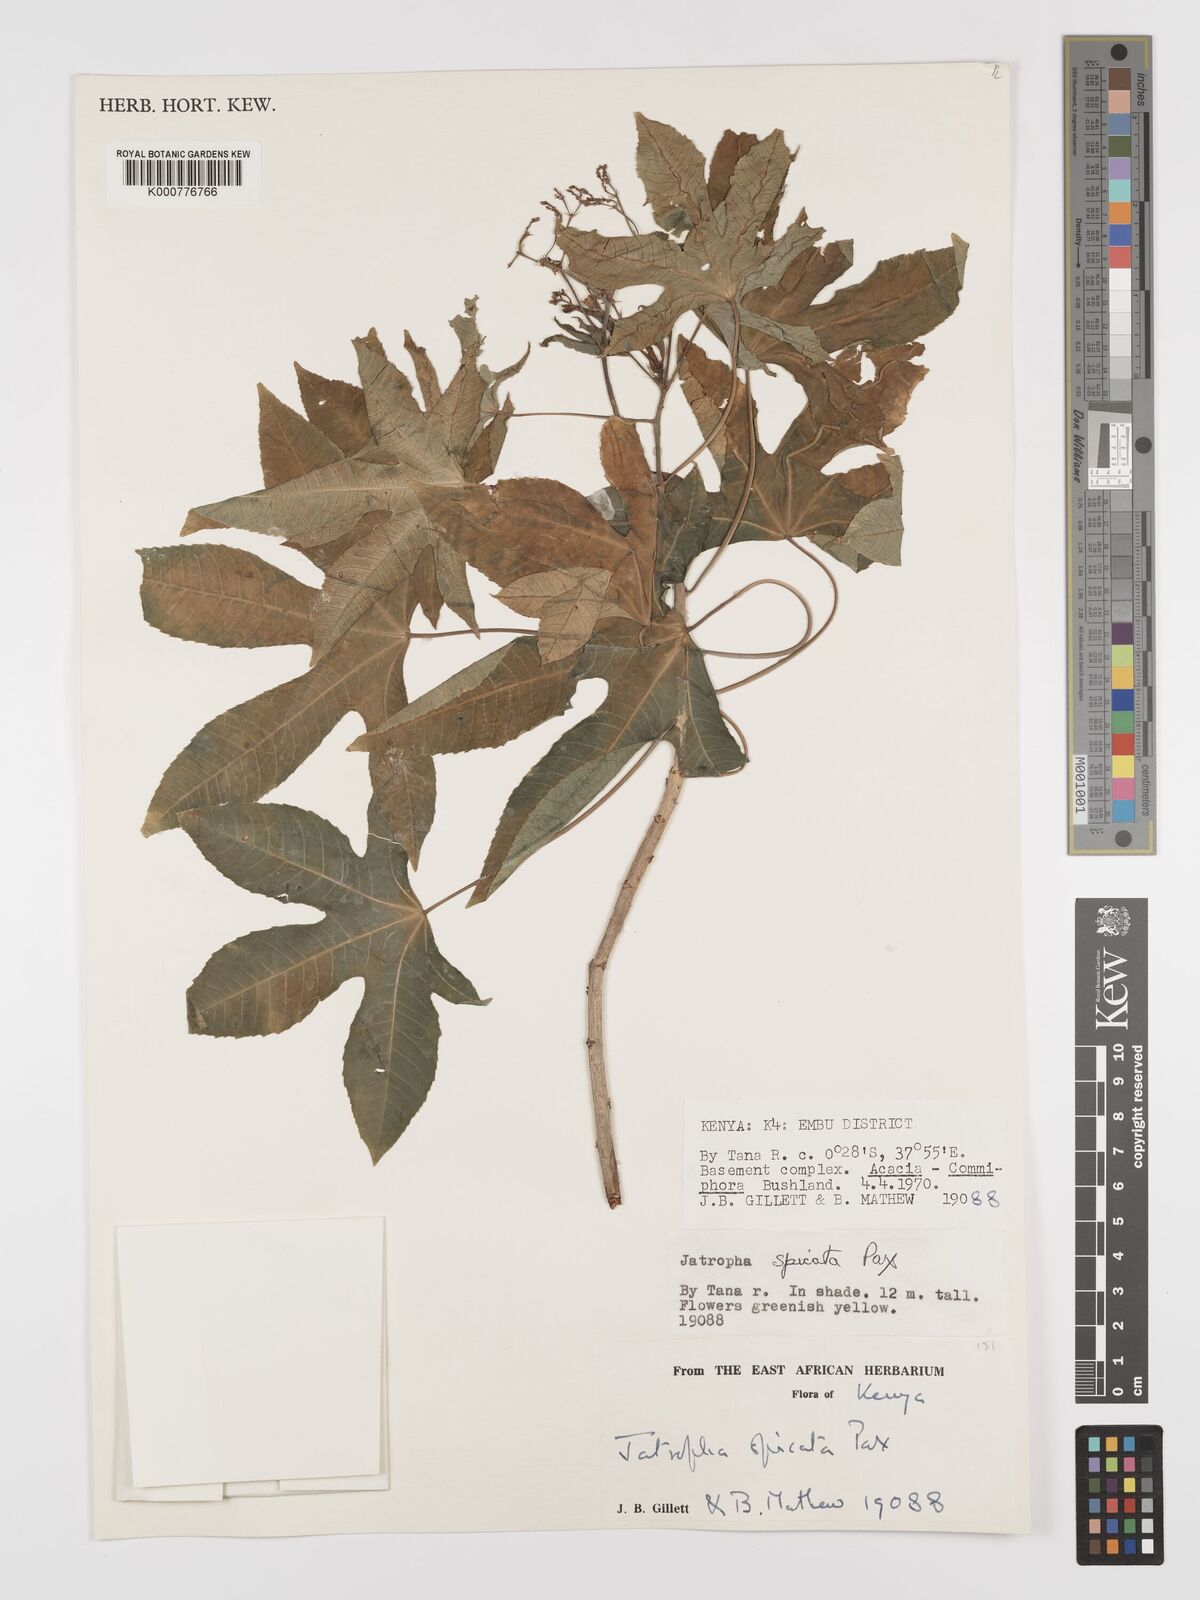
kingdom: Plantae
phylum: Tracheophyta
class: Magnoliopsida
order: Malpighiales
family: Euphorbiaceae
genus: Jatropha
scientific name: Jatropha spicata
